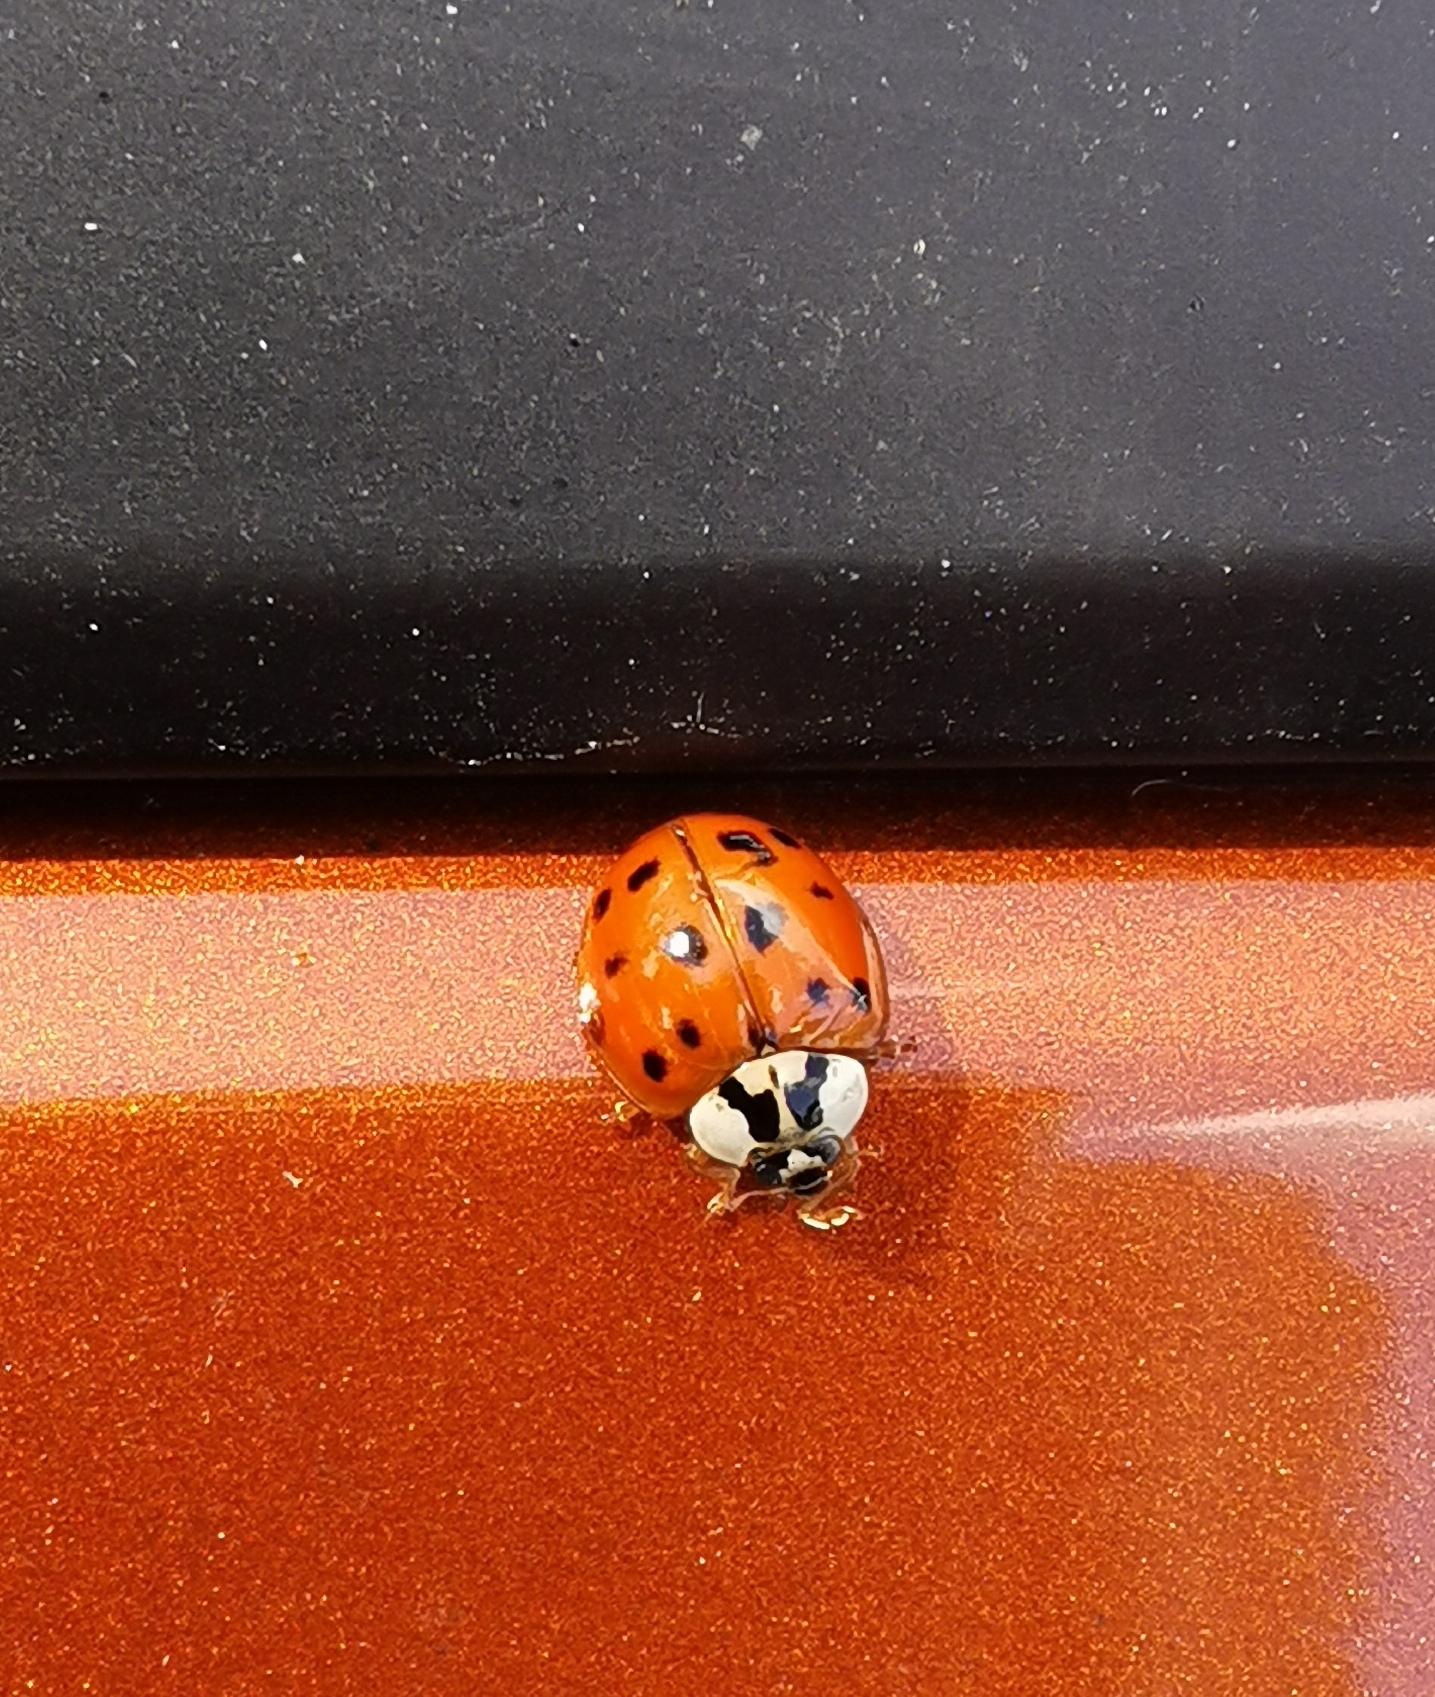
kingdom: Animalia
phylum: Arthropoda
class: Insecta
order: Coleoptera
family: Coccinellidae
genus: Harmonia
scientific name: Harmonia axyridis
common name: Harlekinmariehøne
